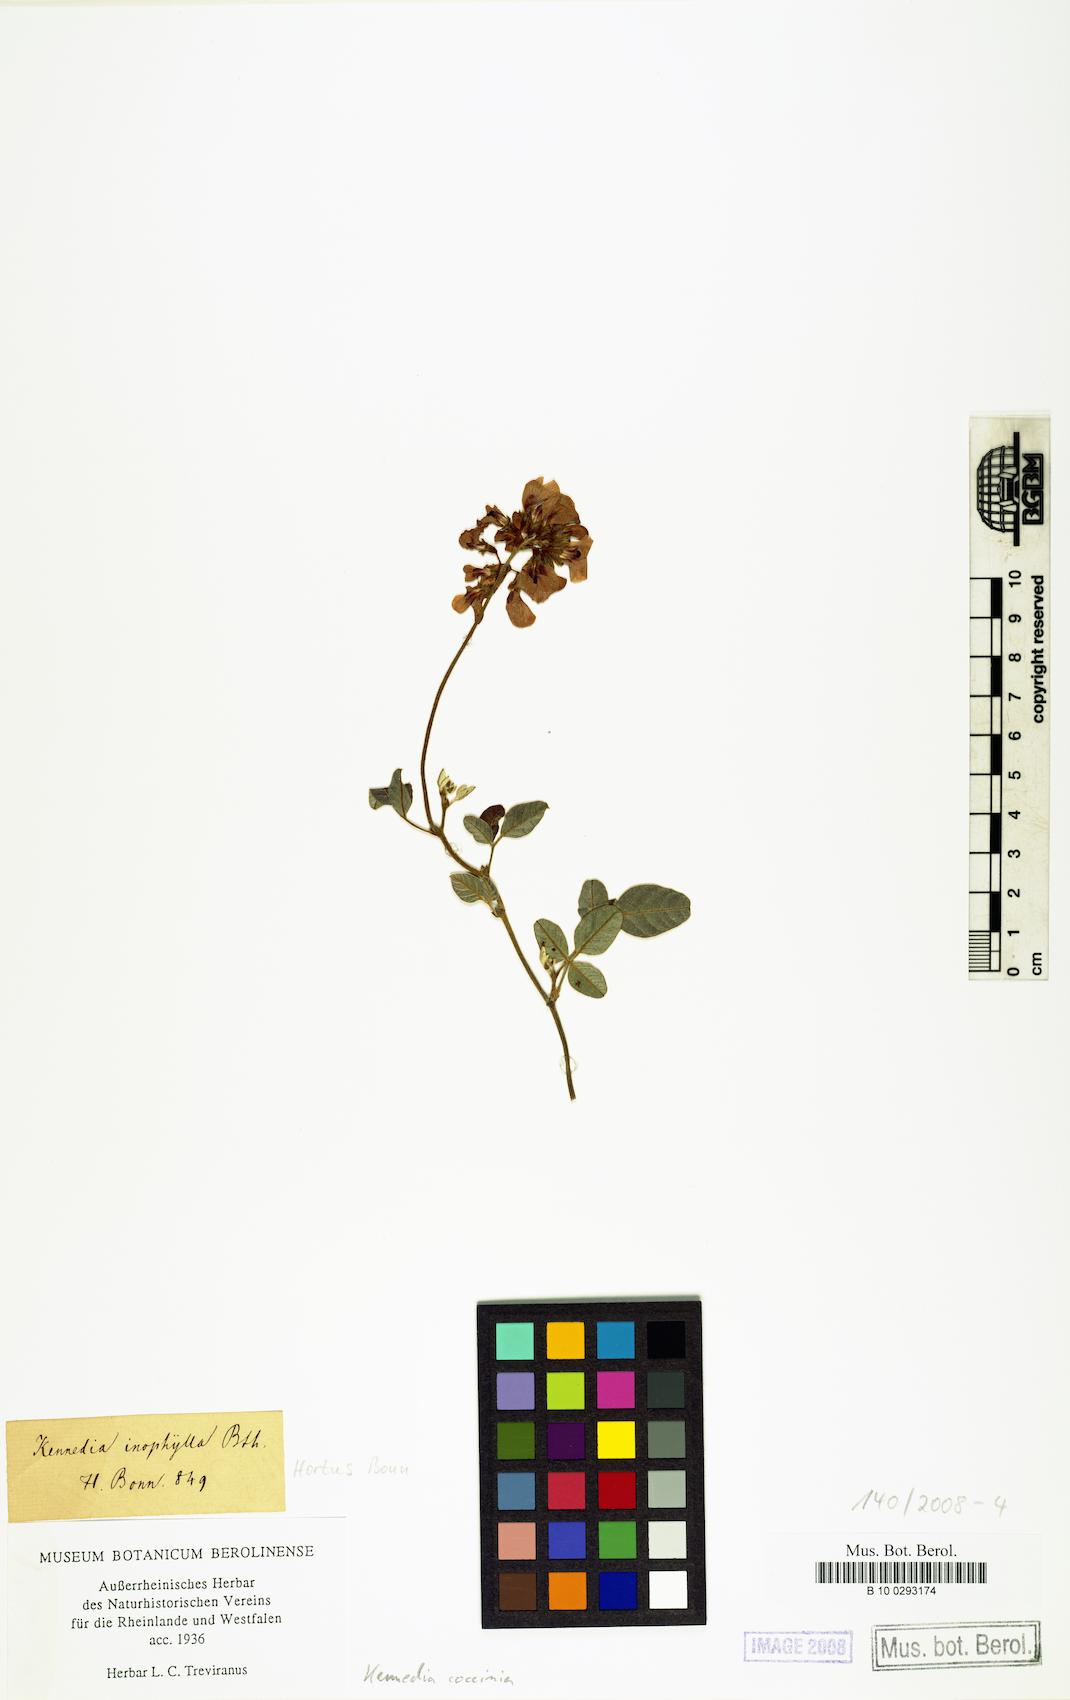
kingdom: Plantae
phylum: Tracheophyta
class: Magnoliopsida
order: Fabales
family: Fabaceae
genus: Kennedia
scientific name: Kennedia coccinea
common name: Coralvine
